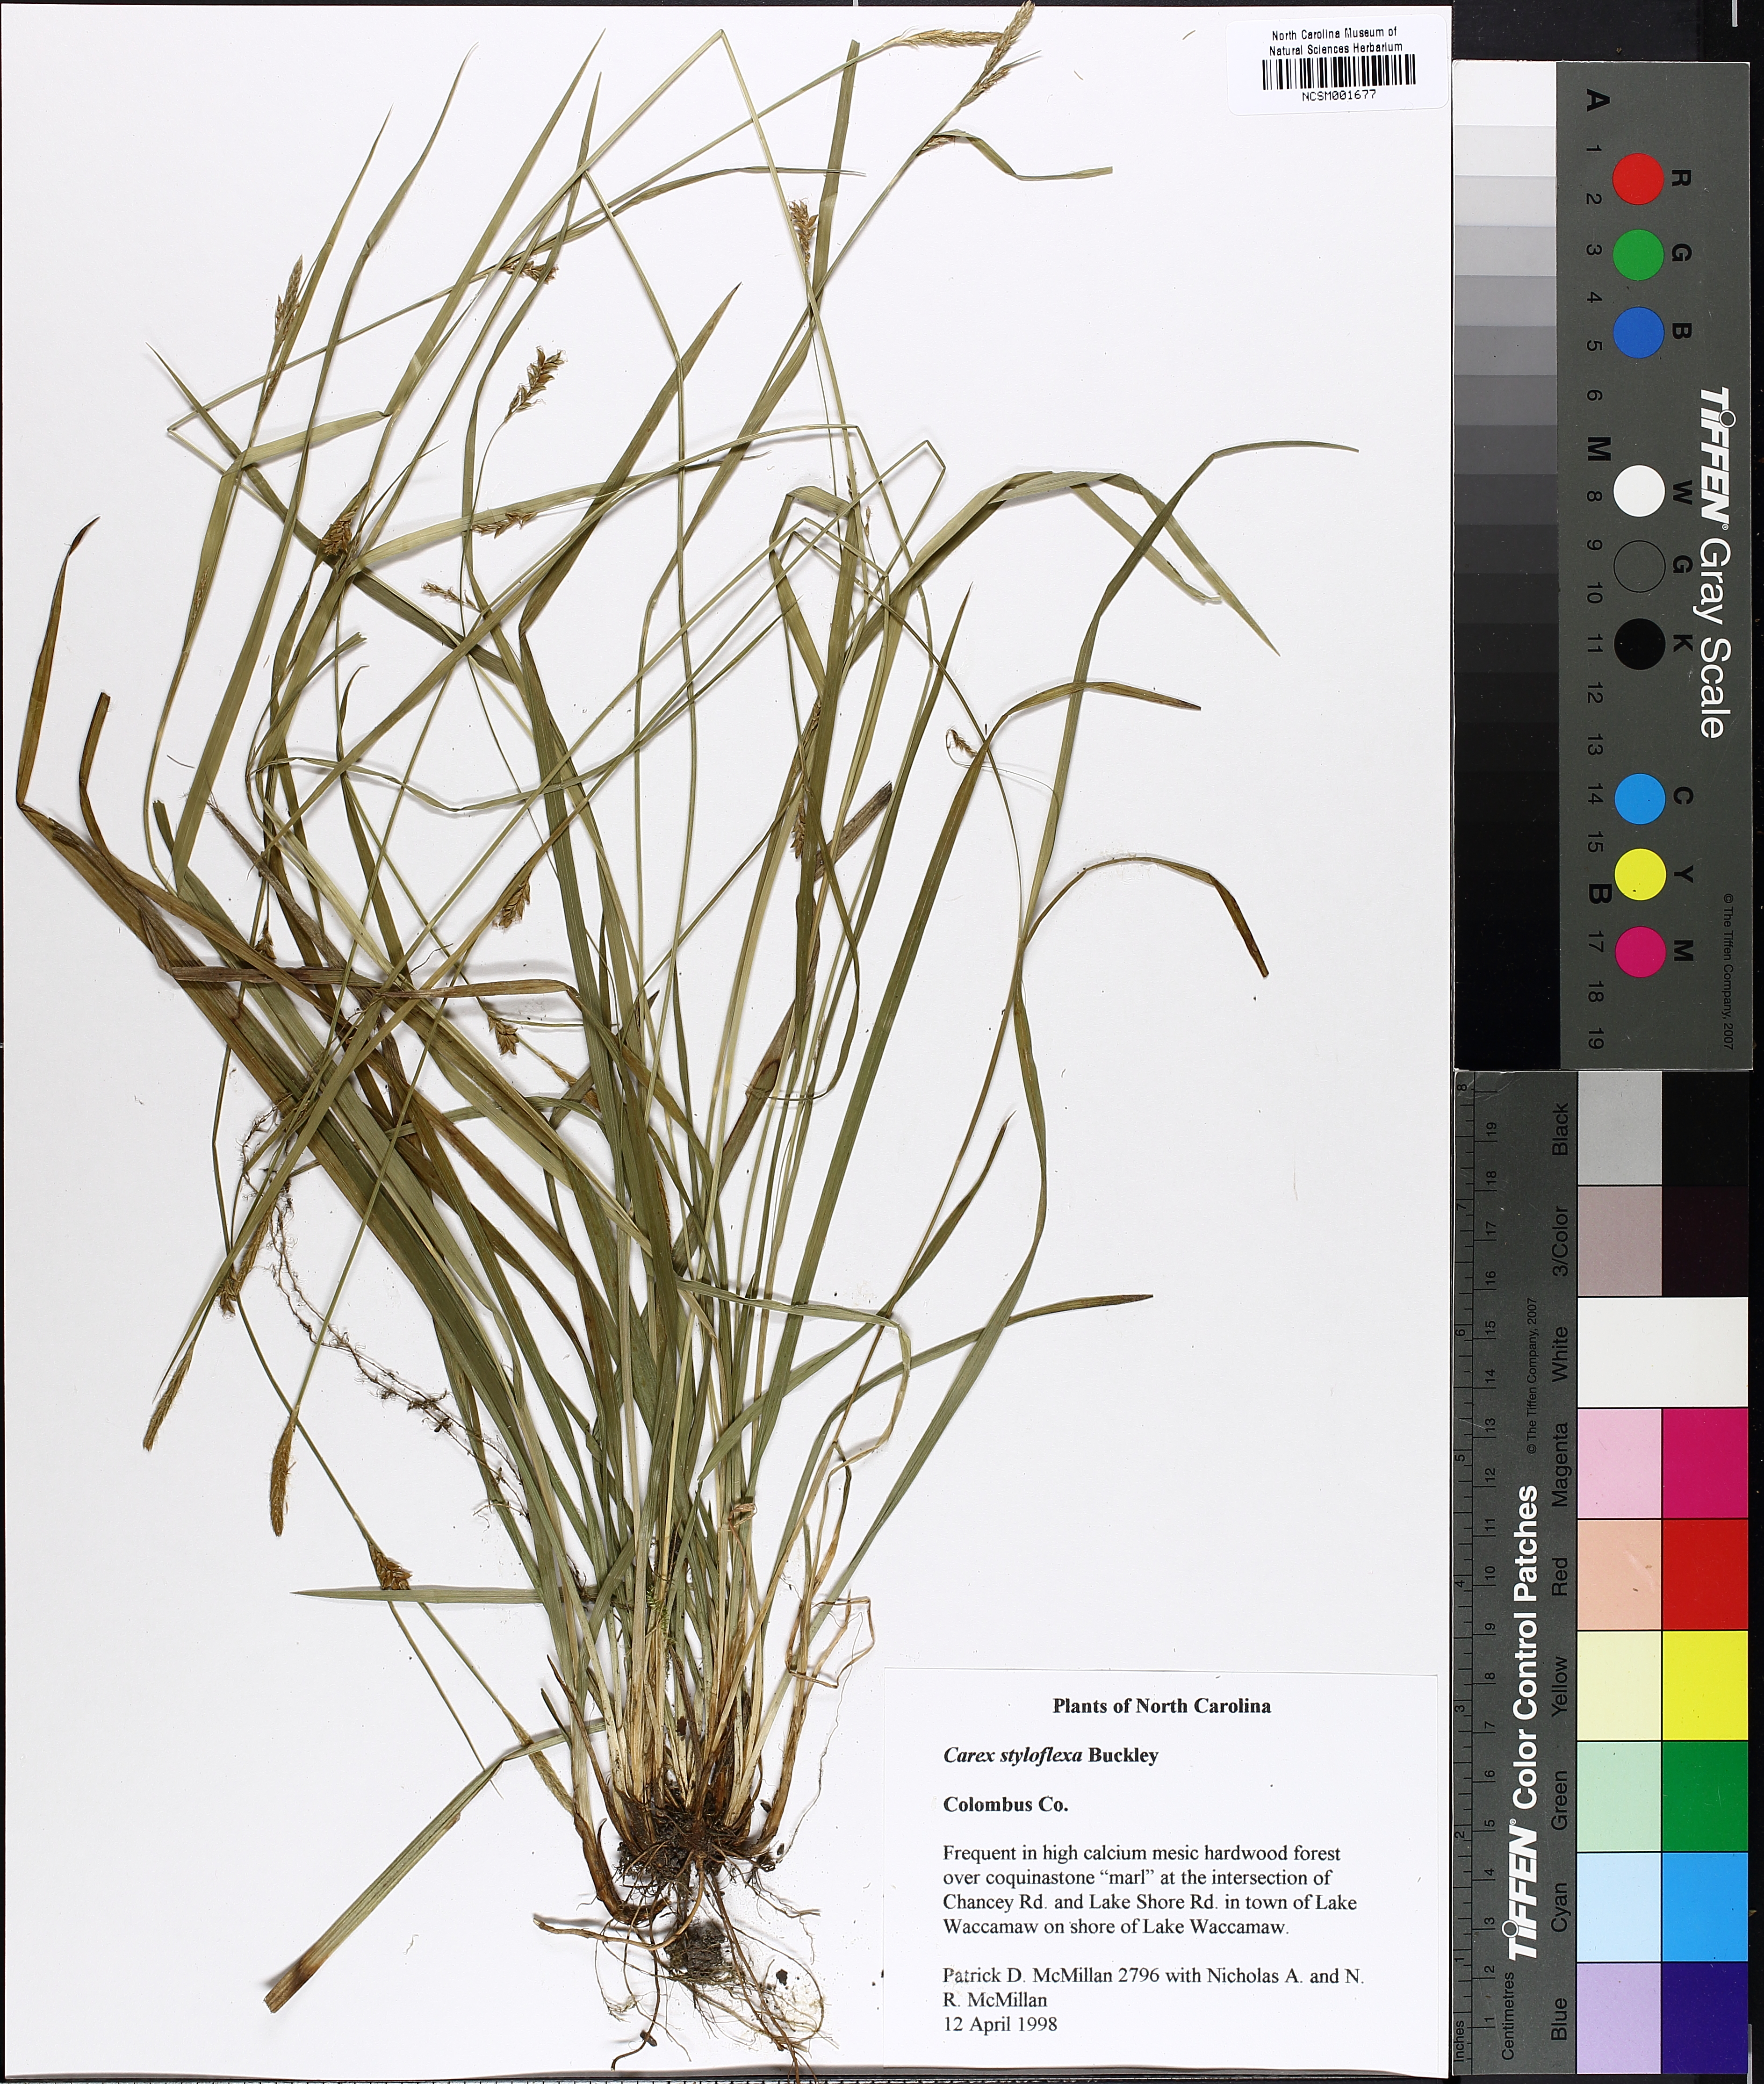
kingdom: Plantae
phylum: Tracheophyta
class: Liliopsida
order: Poales
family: Cyperaceae
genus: Carex
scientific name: Carex styloflexa
